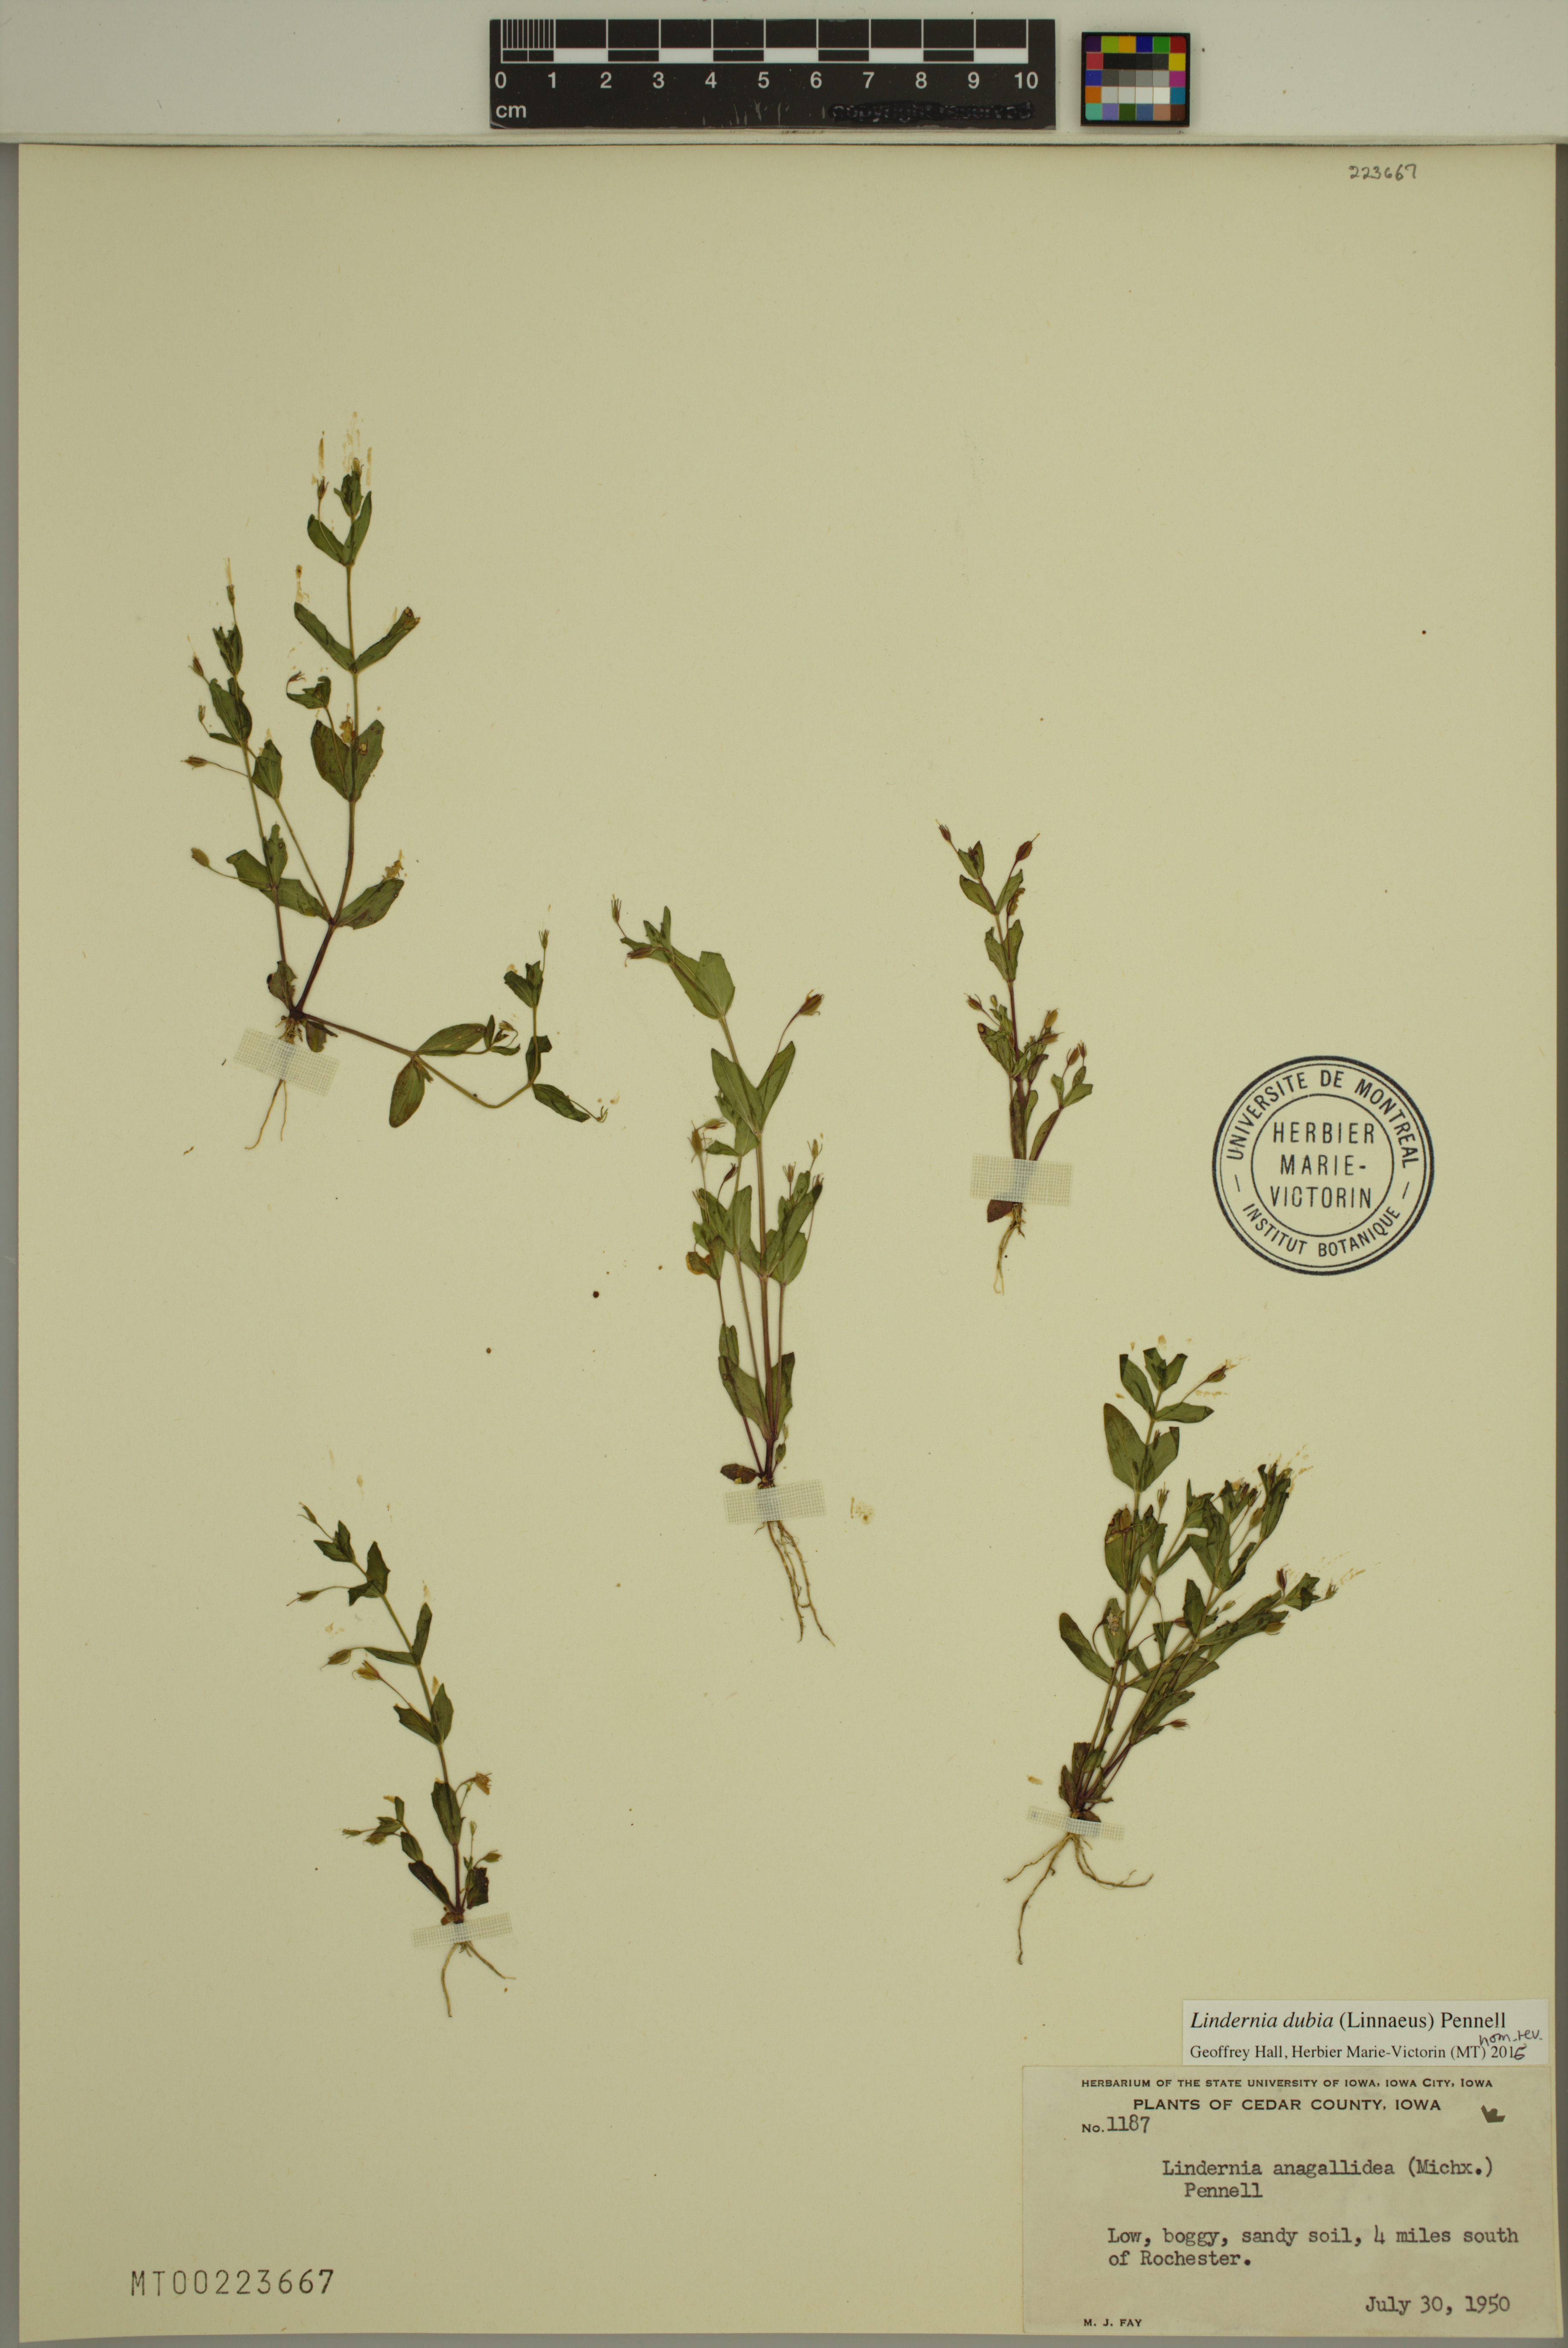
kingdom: Plantae
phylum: Tracheophyta
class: Magnoliopsida
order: Lamiales
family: Linderniaceae
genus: Lindernia
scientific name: Lindernia dubia
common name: Annual false pimpernel
